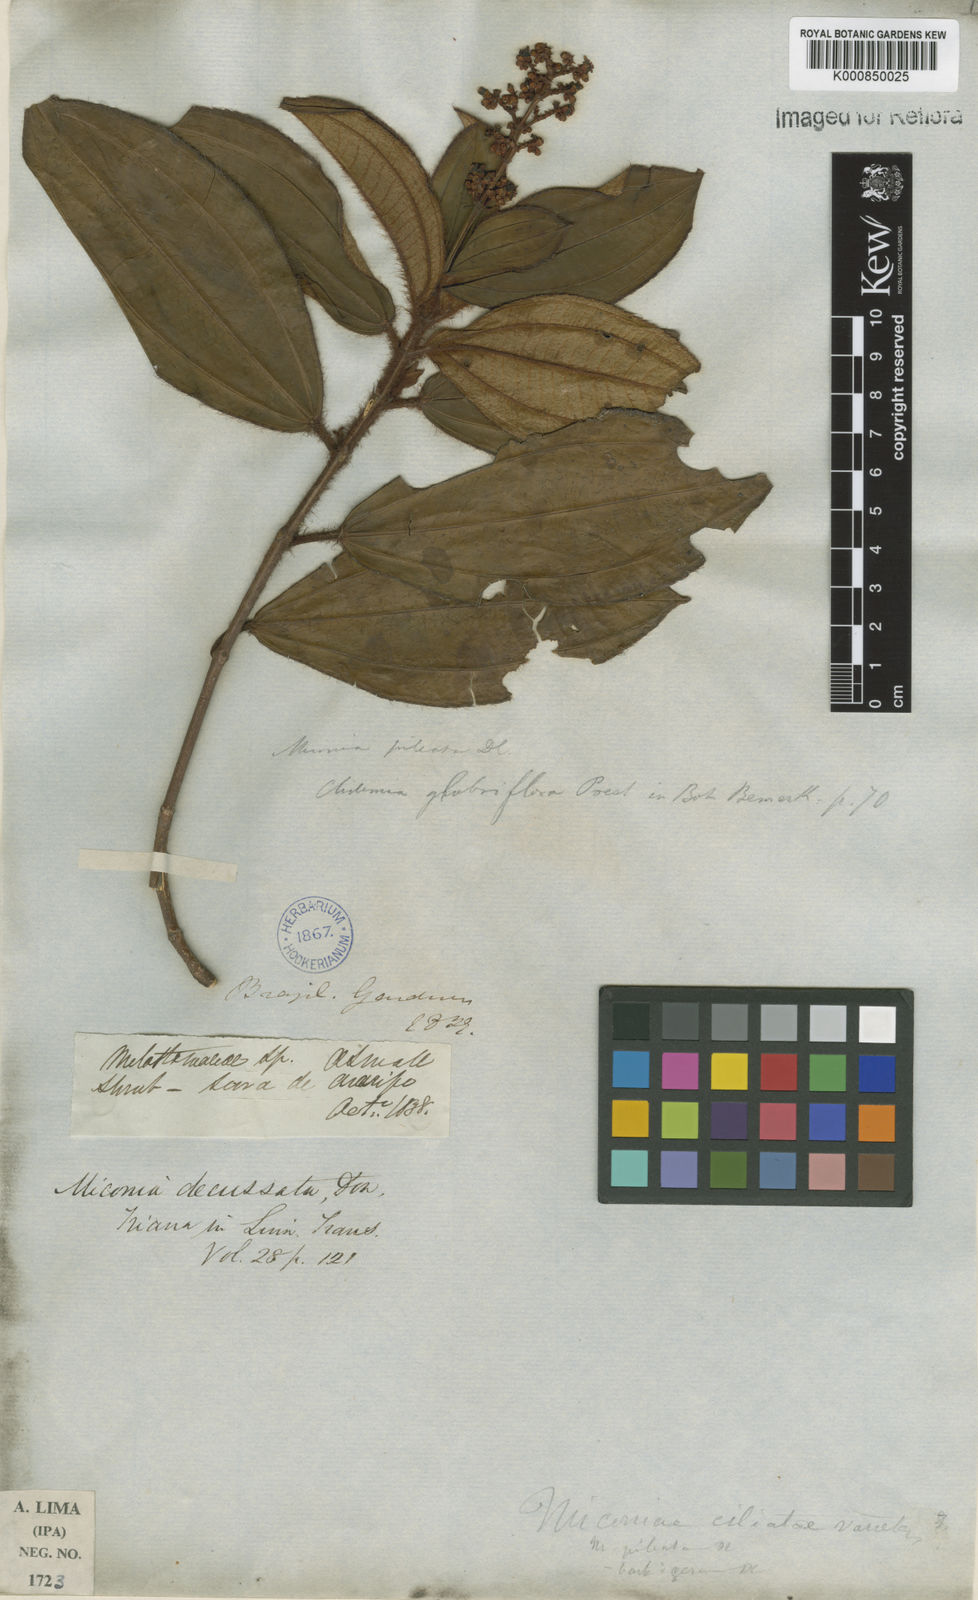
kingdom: Plantae
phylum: Tracheophyta
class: Magnoliopsida
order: Myrtales
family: Melastomataceae
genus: Miconia
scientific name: Miconia pileata
